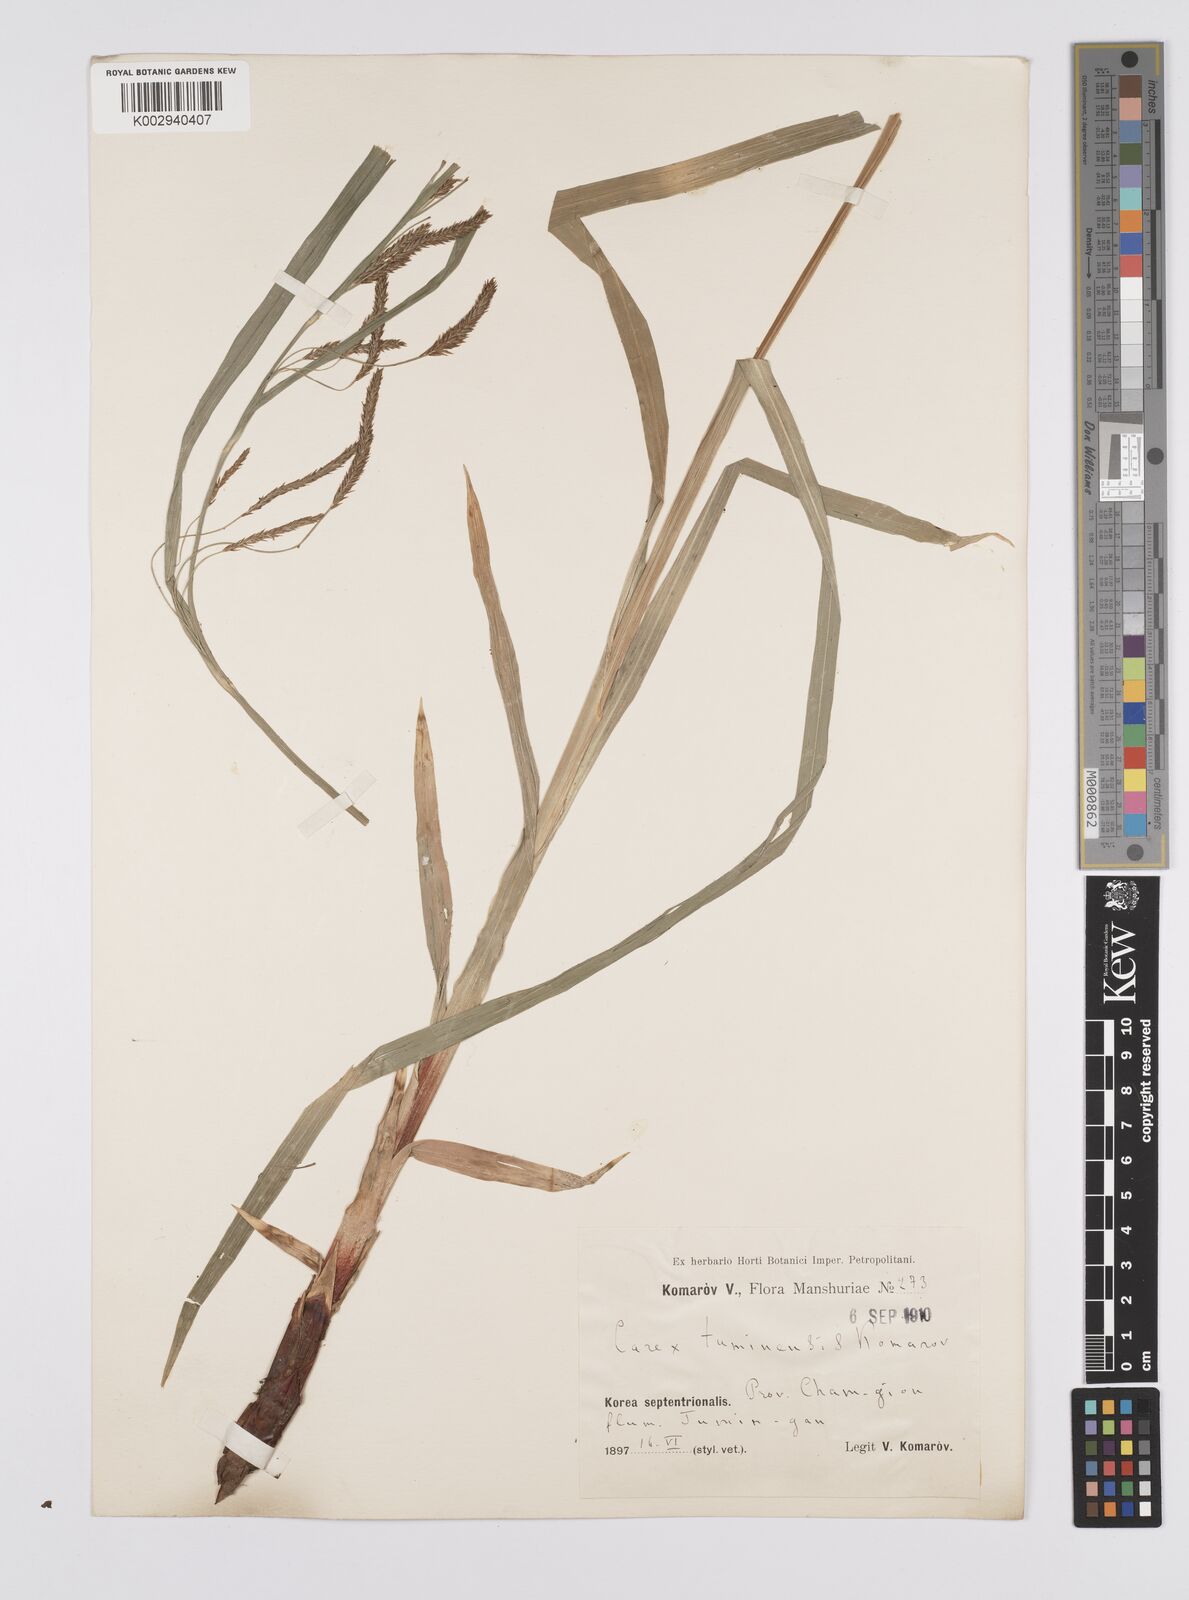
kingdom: Plantae
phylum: Tracheophyta
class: Liliopsida
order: Poales
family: Cyperaceae
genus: Carex
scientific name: Carex tuminensis
